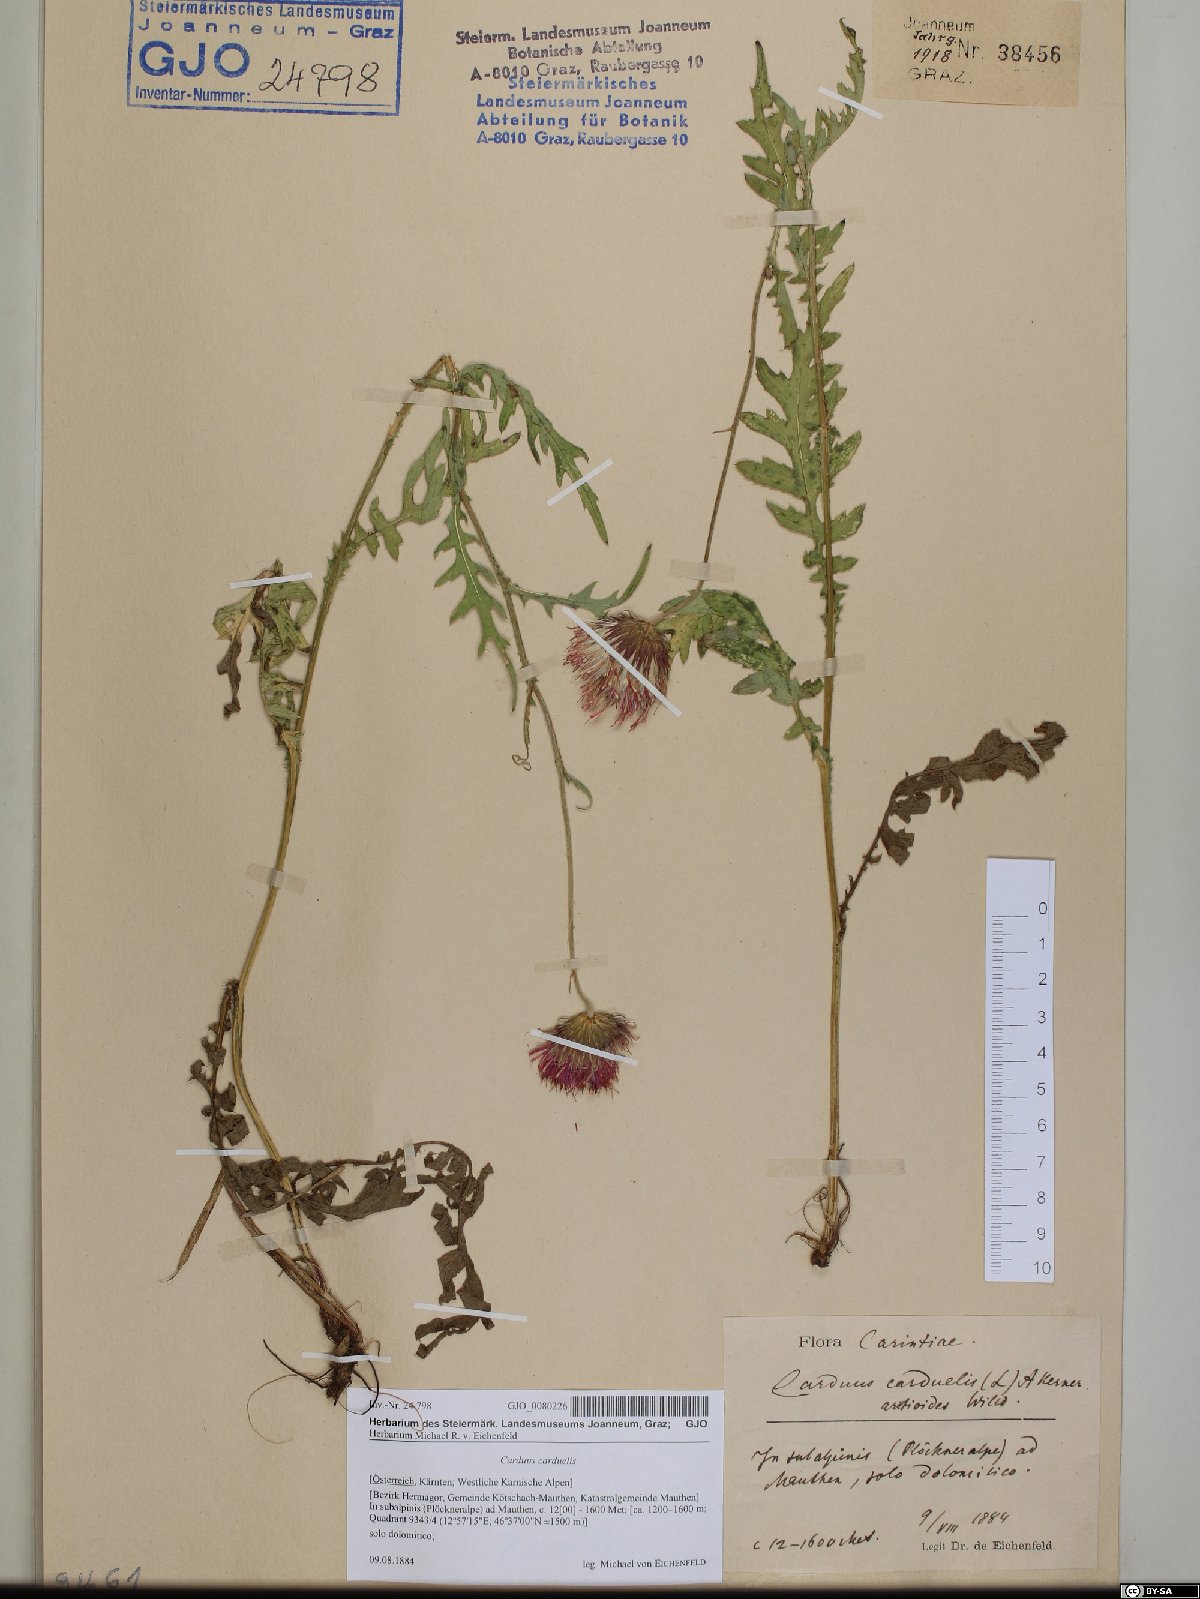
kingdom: Plantae
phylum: Tracheophyta
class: Magnoliopsida
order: Asterales
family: Asteraceae
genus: Carduus
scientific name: Carduus carduelis
